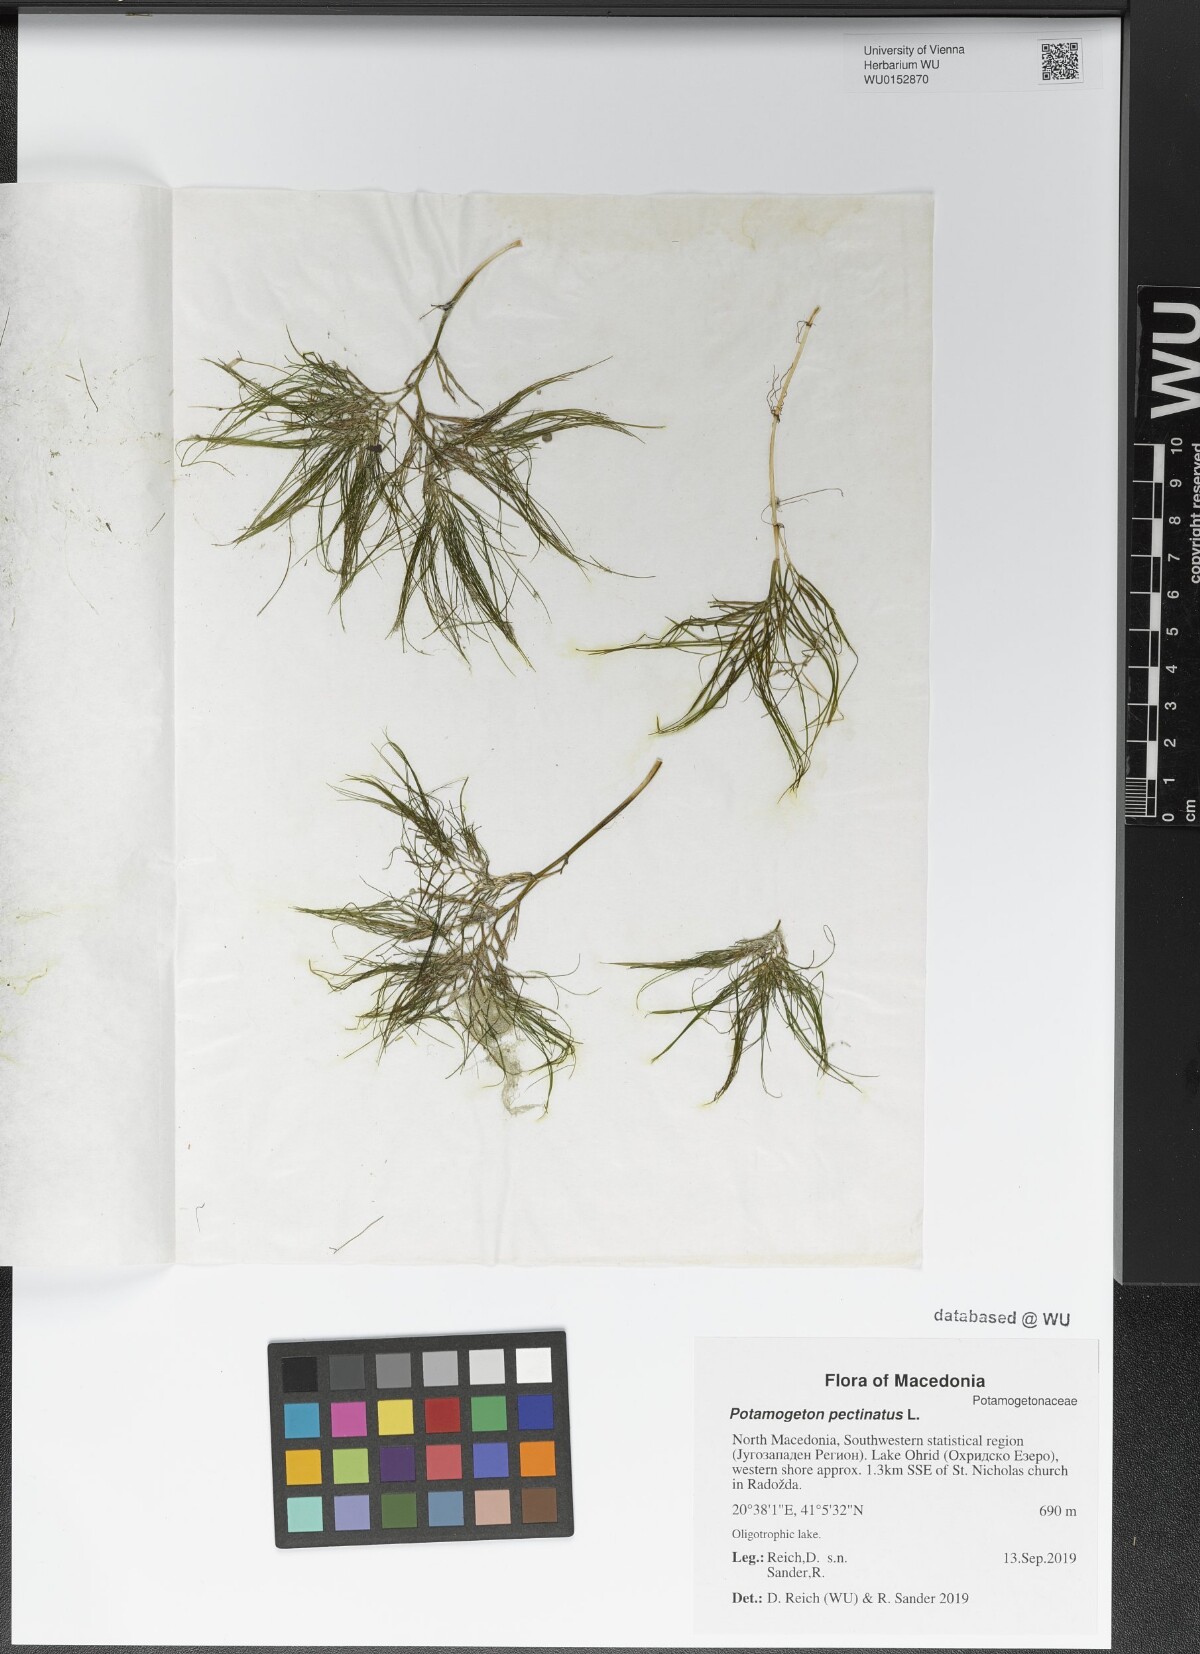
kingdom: Plantae
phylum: Tracheophyta
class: Liliopsida
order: Alismatales
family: Potamogetonaceae
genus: Stuckenia
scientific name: Stuckenia pectinata
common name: Sago pondweed
